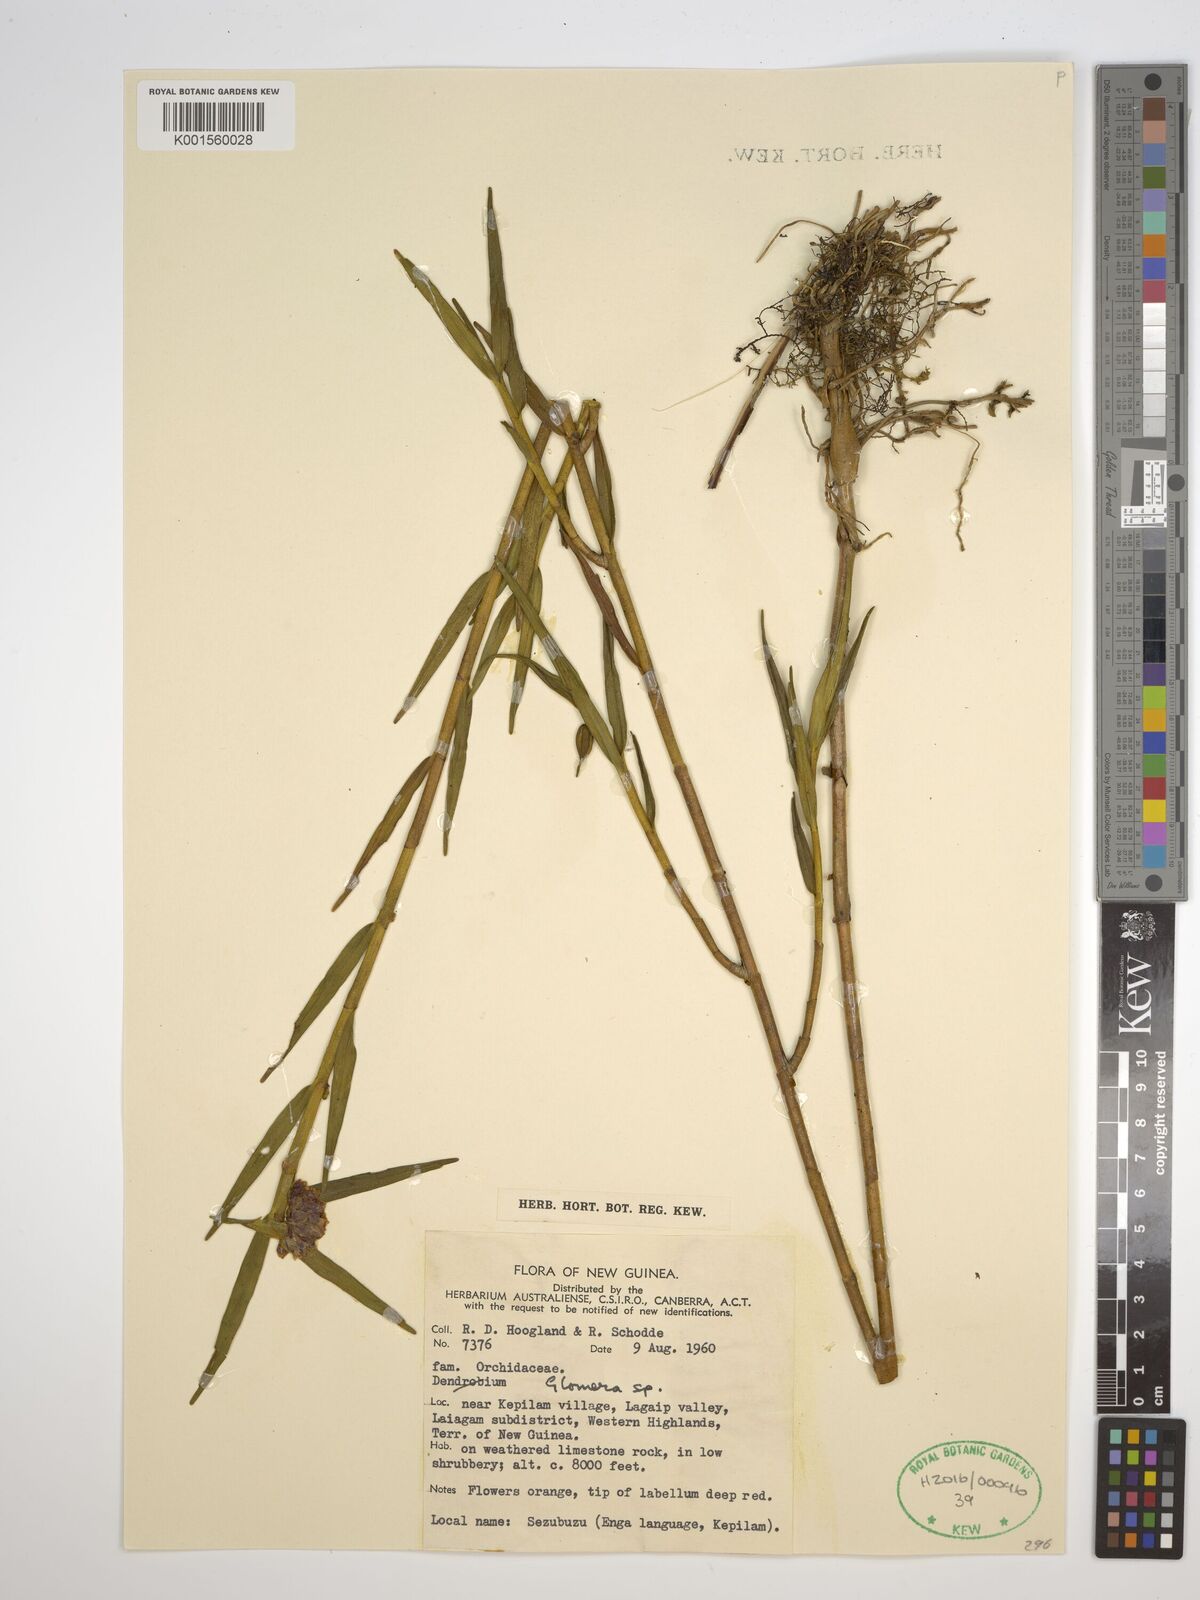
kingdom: Plantae
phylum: Tracheophyta
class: Liliopsida
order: Asparagales
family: Orchidaceae
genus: Glomera
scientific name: Glomera
